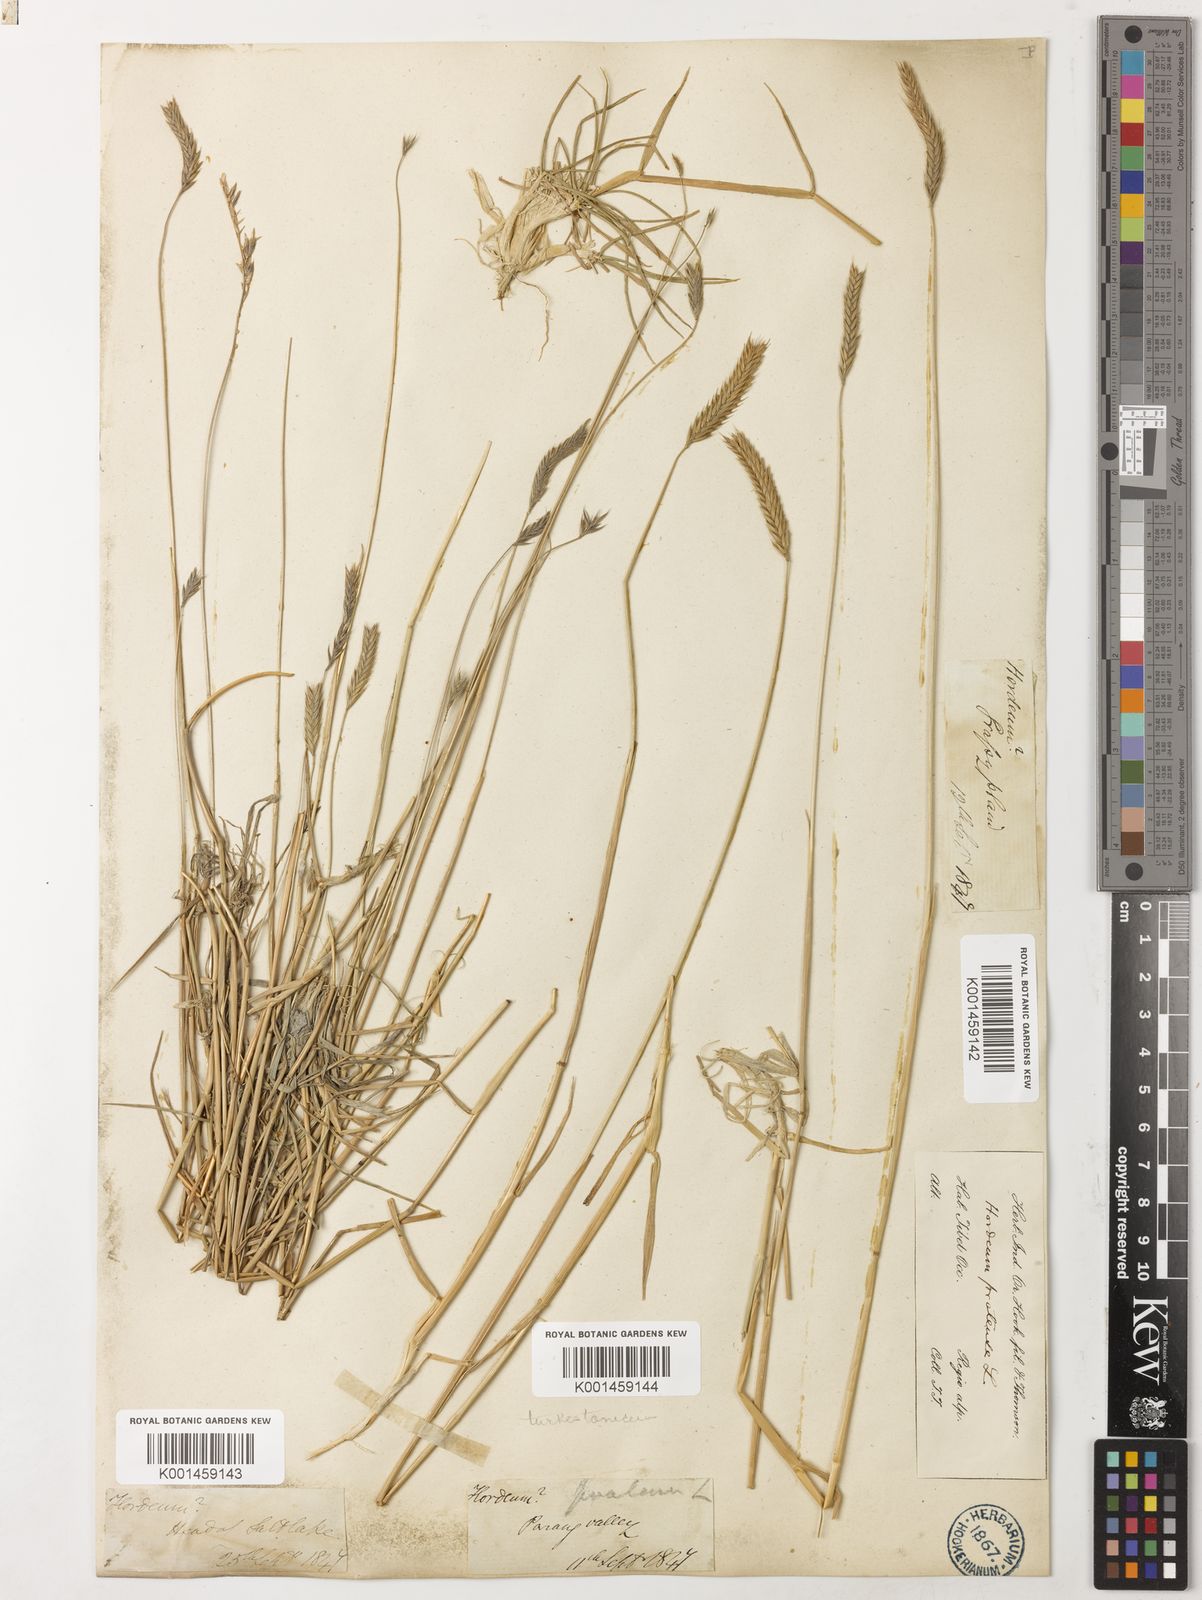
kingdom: Plantae
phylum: Tracheophyta
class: Liliopsida
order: Poales
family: Poaceae
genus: Hordeum
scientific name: Hordeum brevisubulatum
